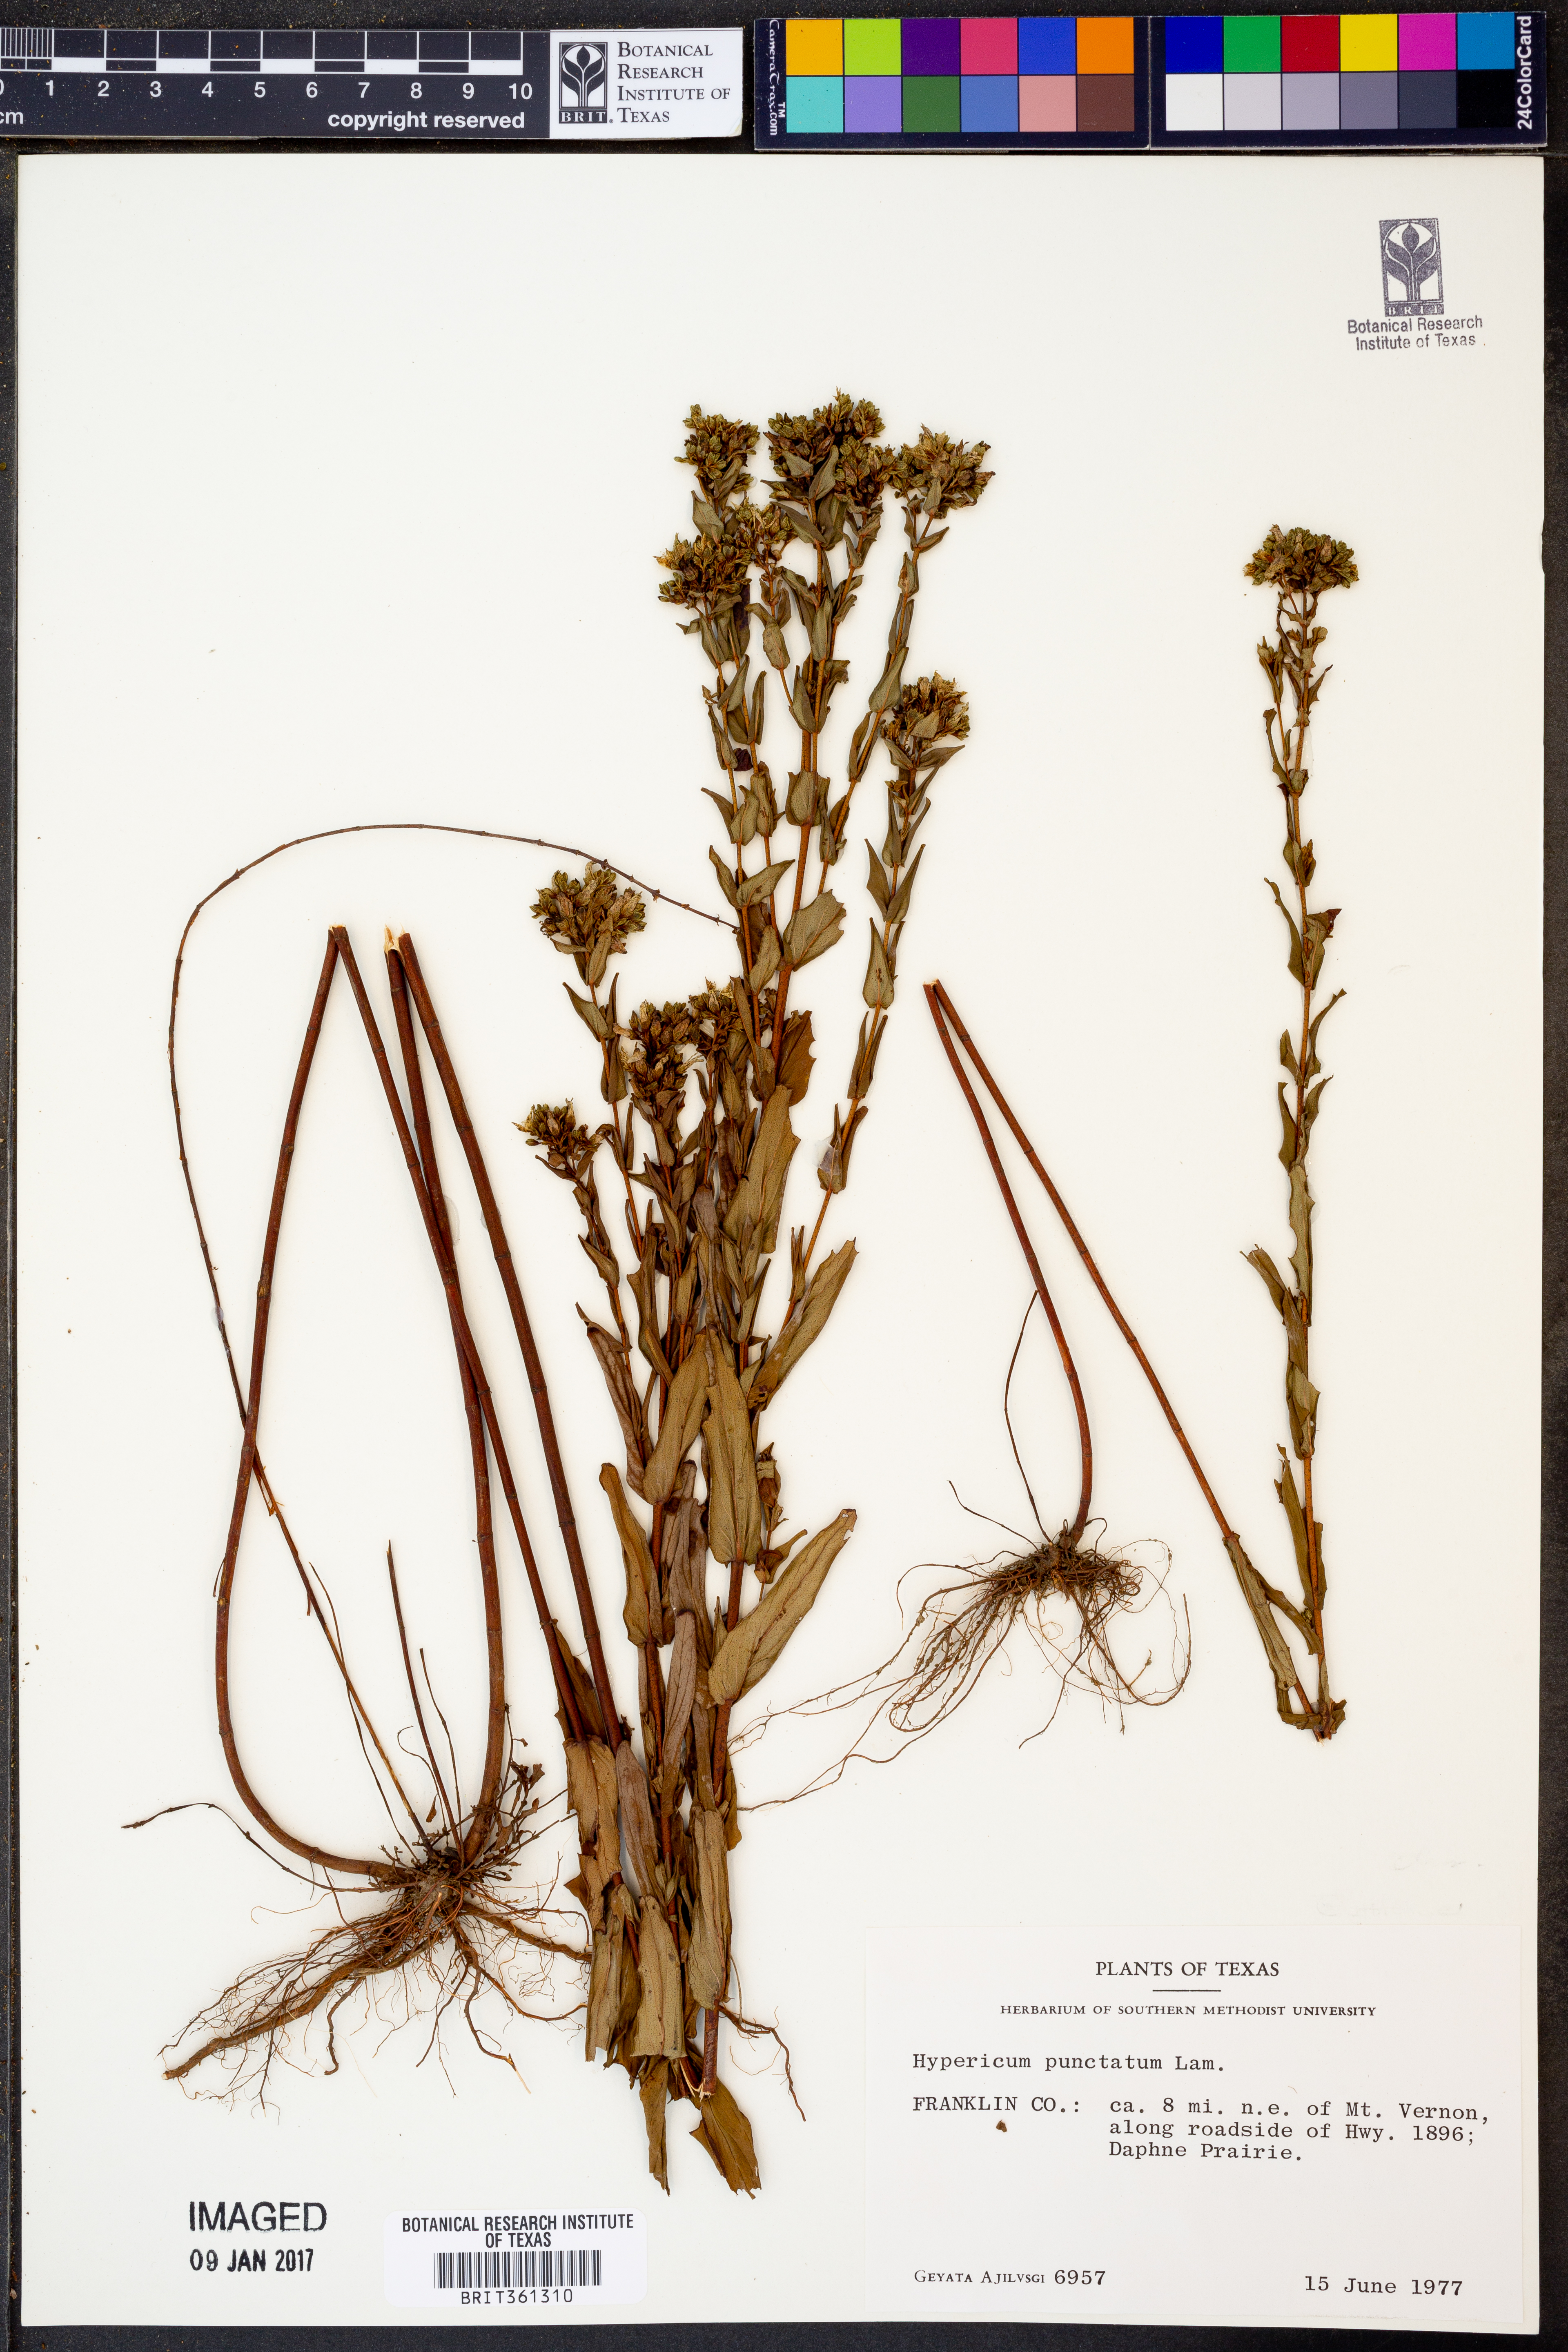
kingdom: Plantae
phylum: Tracheophyta
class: Magnoliopsida
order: Malpighiales
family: Hypericaceae
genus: Hypericum
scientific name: Hypericum punctatum
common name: Spotted st. john's-wort
